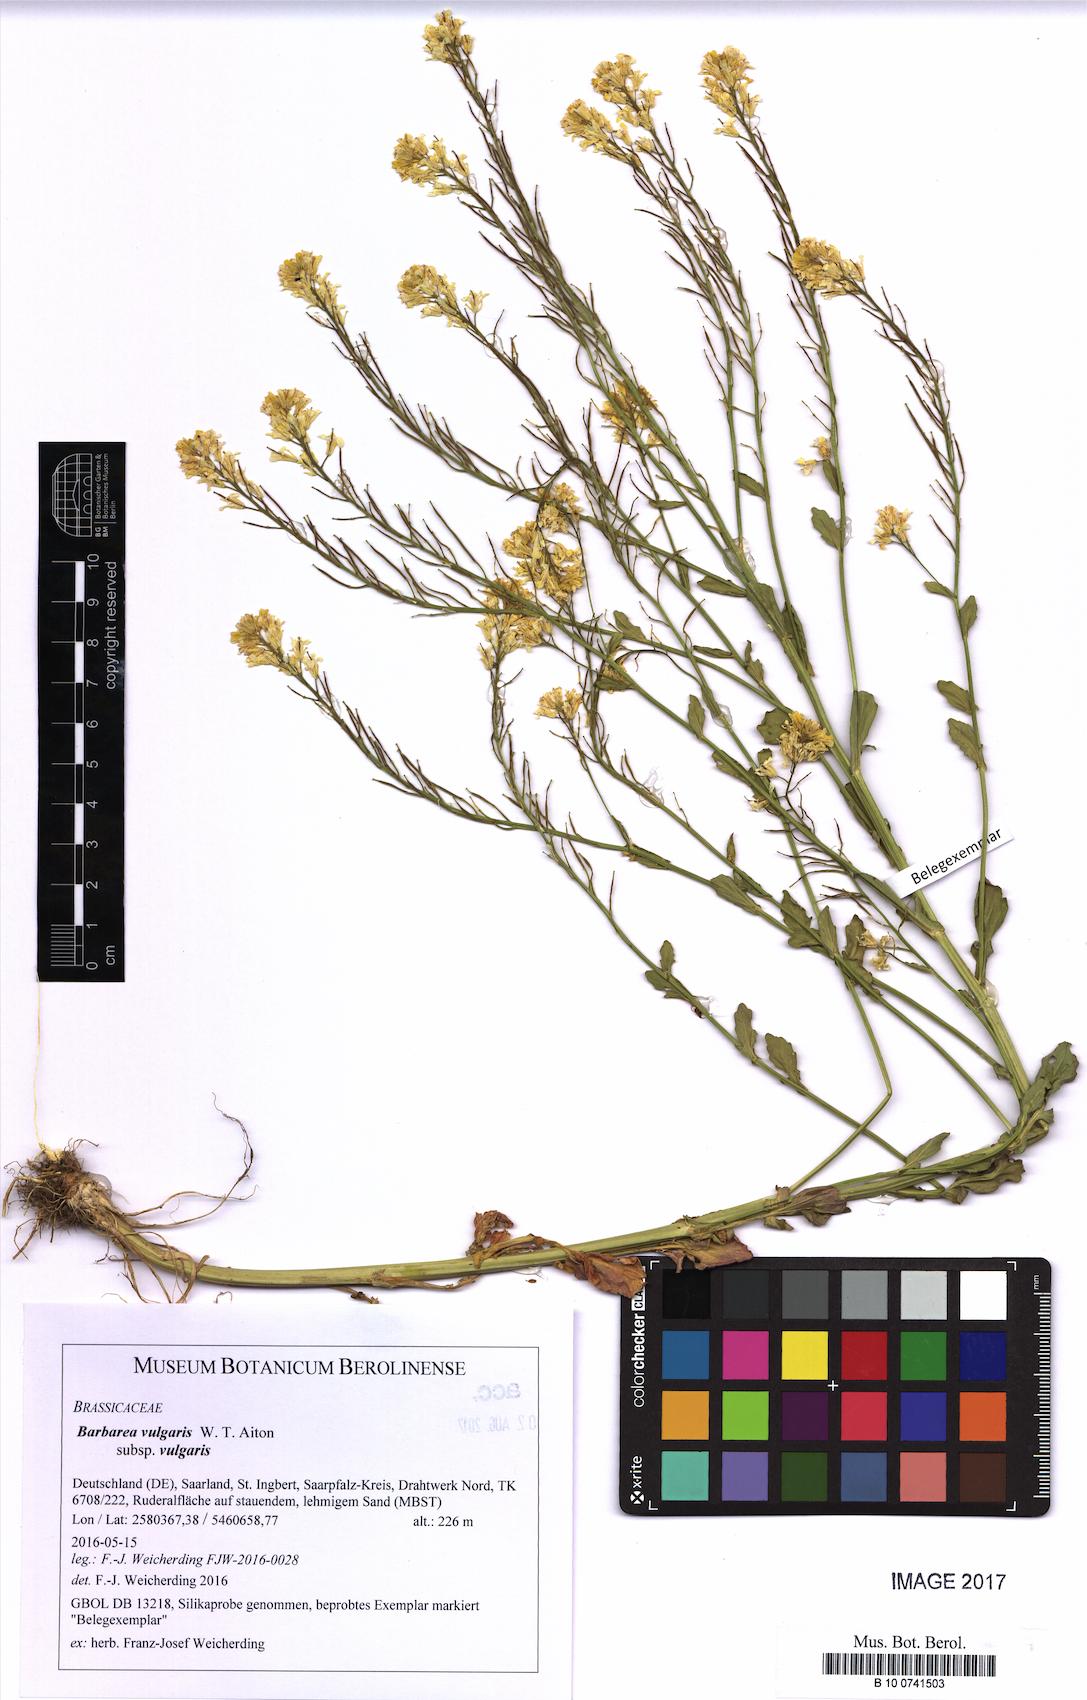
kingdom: Plantae
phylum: Tracheophyta
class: Magnoliopsida
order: Brassicales
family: Brassicaceae
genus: Barbarea
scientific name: Barbarea vulgaris
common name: Cressy-greens
